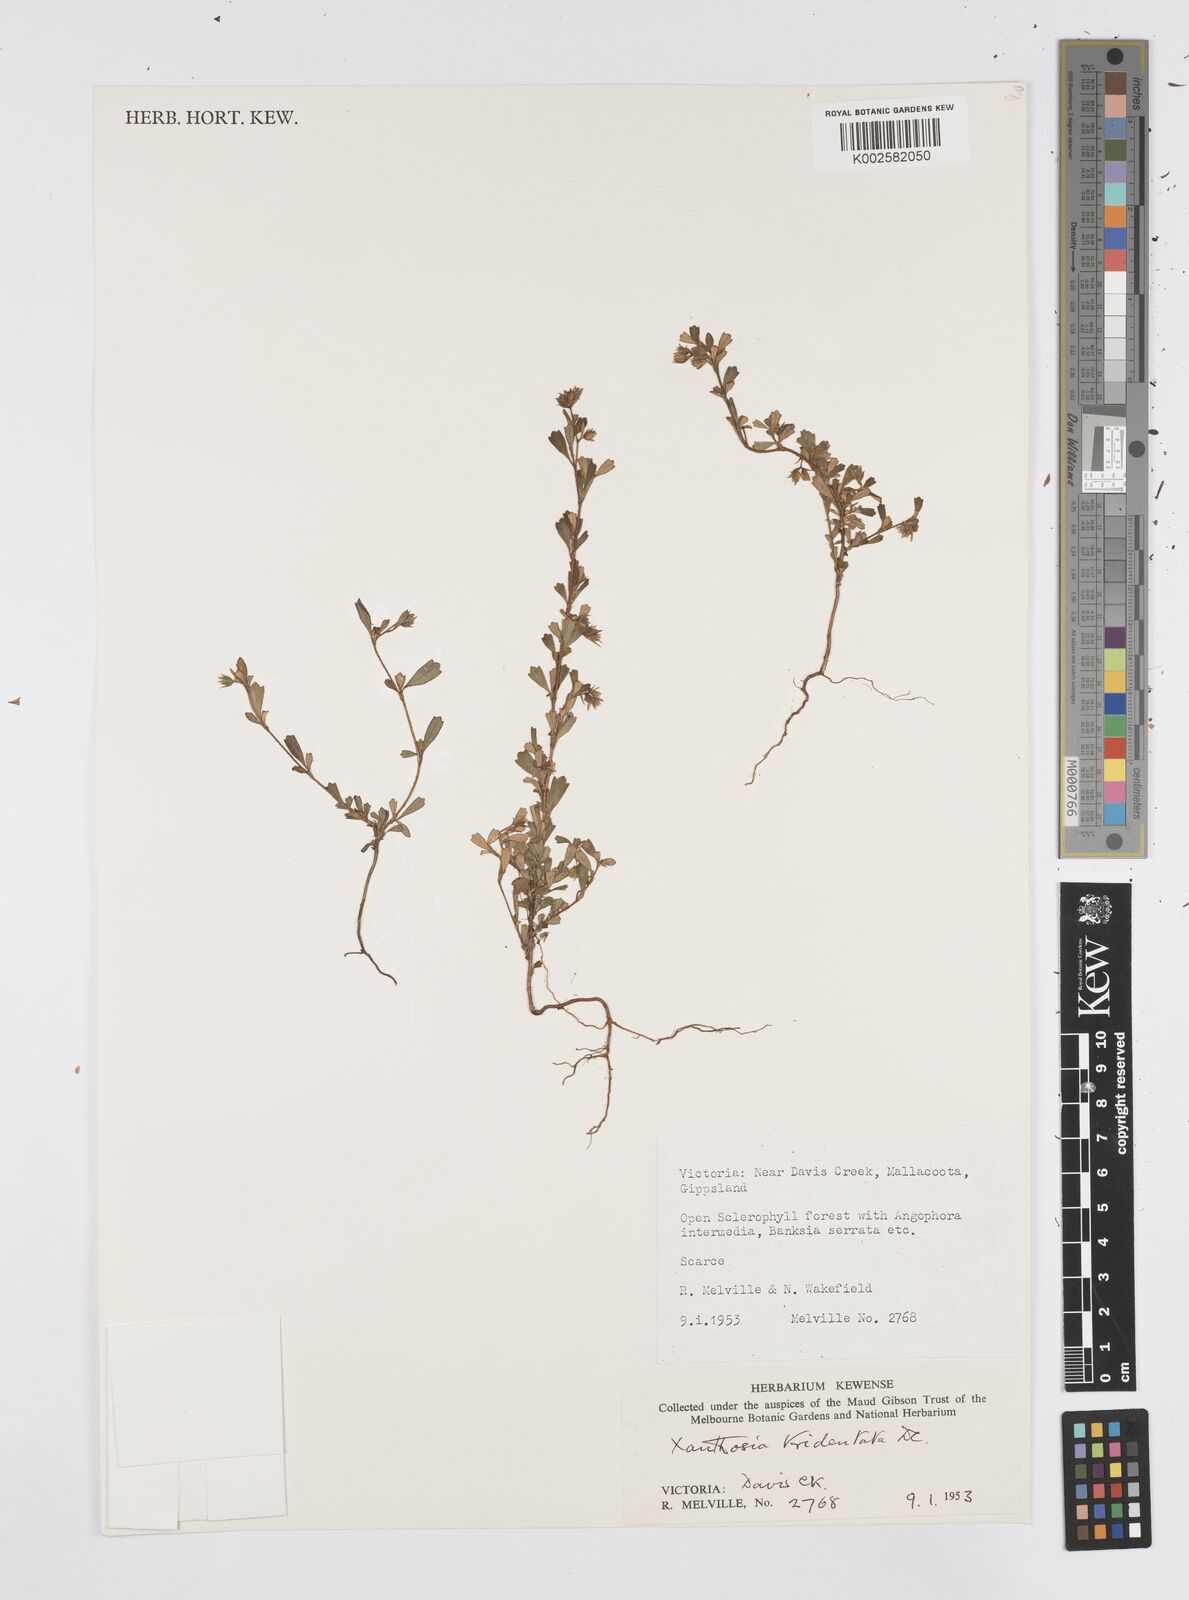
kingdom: Plantae
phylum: Tracheophyta
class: Magnoliopsida
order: Apiales
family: Apiaceae
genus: Xanthosia
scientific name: Xanthosia tridentata
